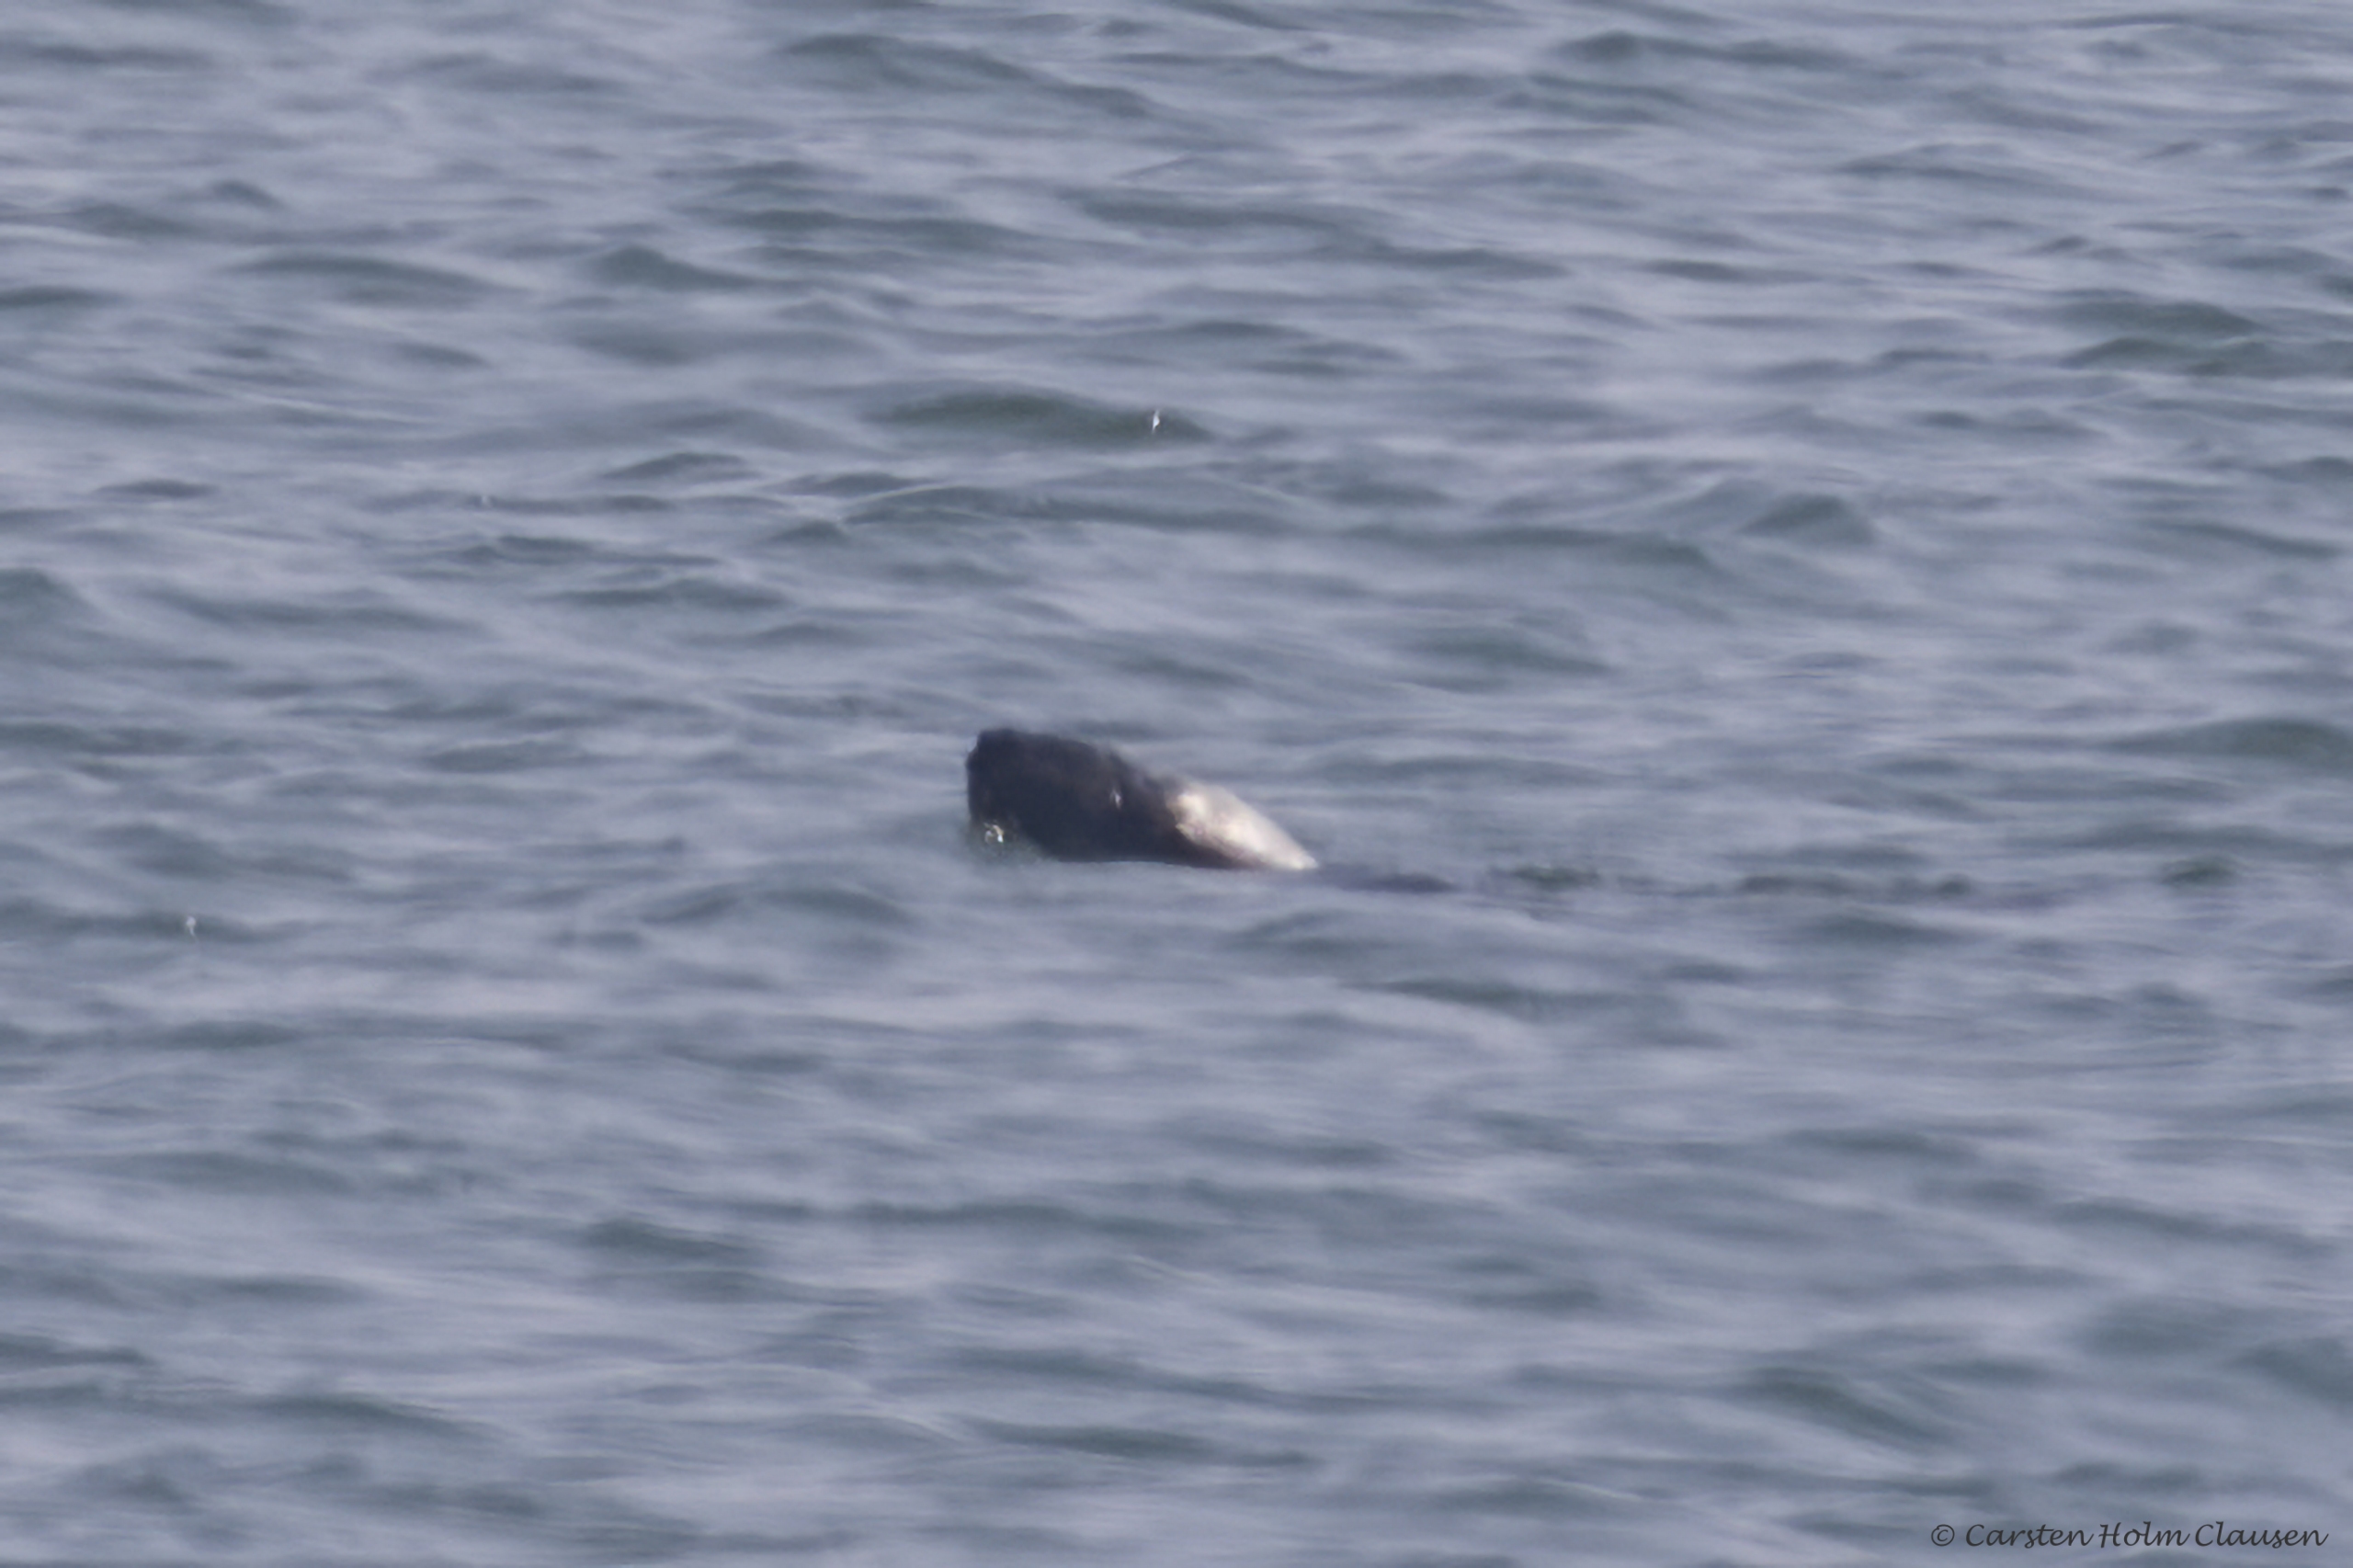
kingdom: Animalia
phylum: Chordata
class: Mammalia
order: Carnivora
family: Phocidae
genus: Halichoerus
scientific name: Halichoerus grypus
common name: Gråsæl
